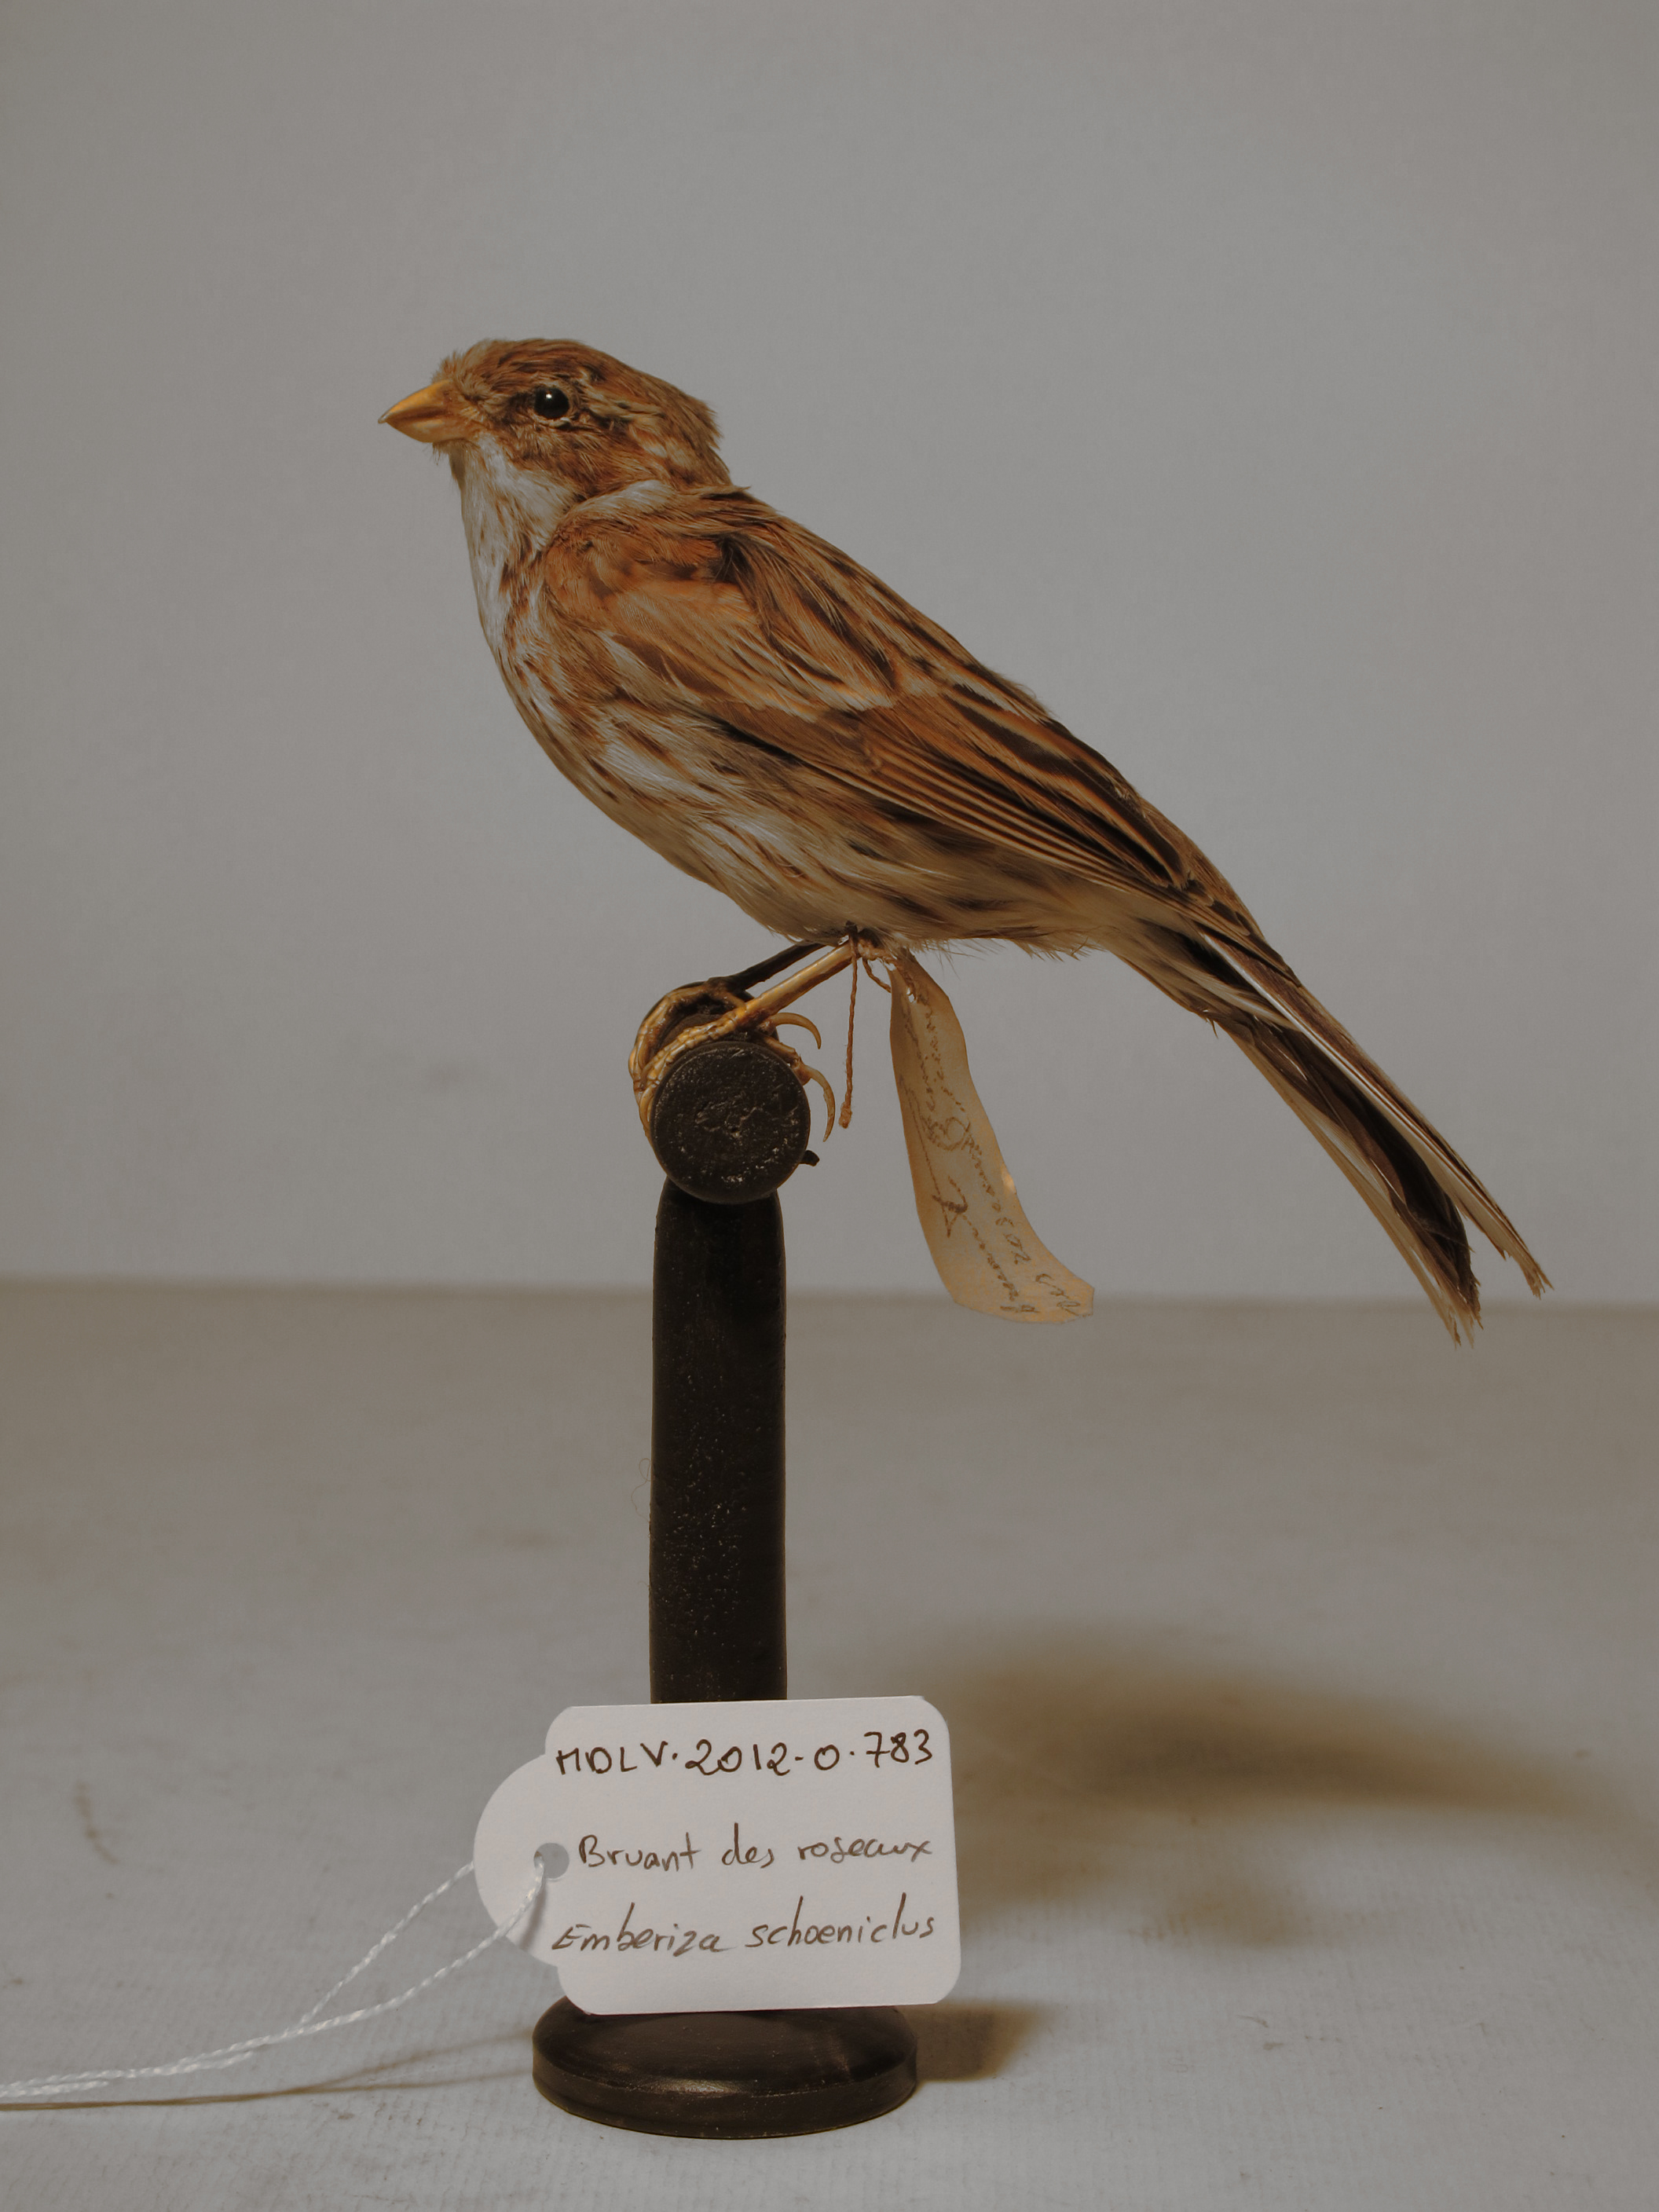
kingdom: Animalia
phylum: Chordata
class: Aves
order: Passeriformes
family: Emberizidae
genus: Emberiza
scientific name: Emberiza schoeniclus
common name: Reed Bunting
